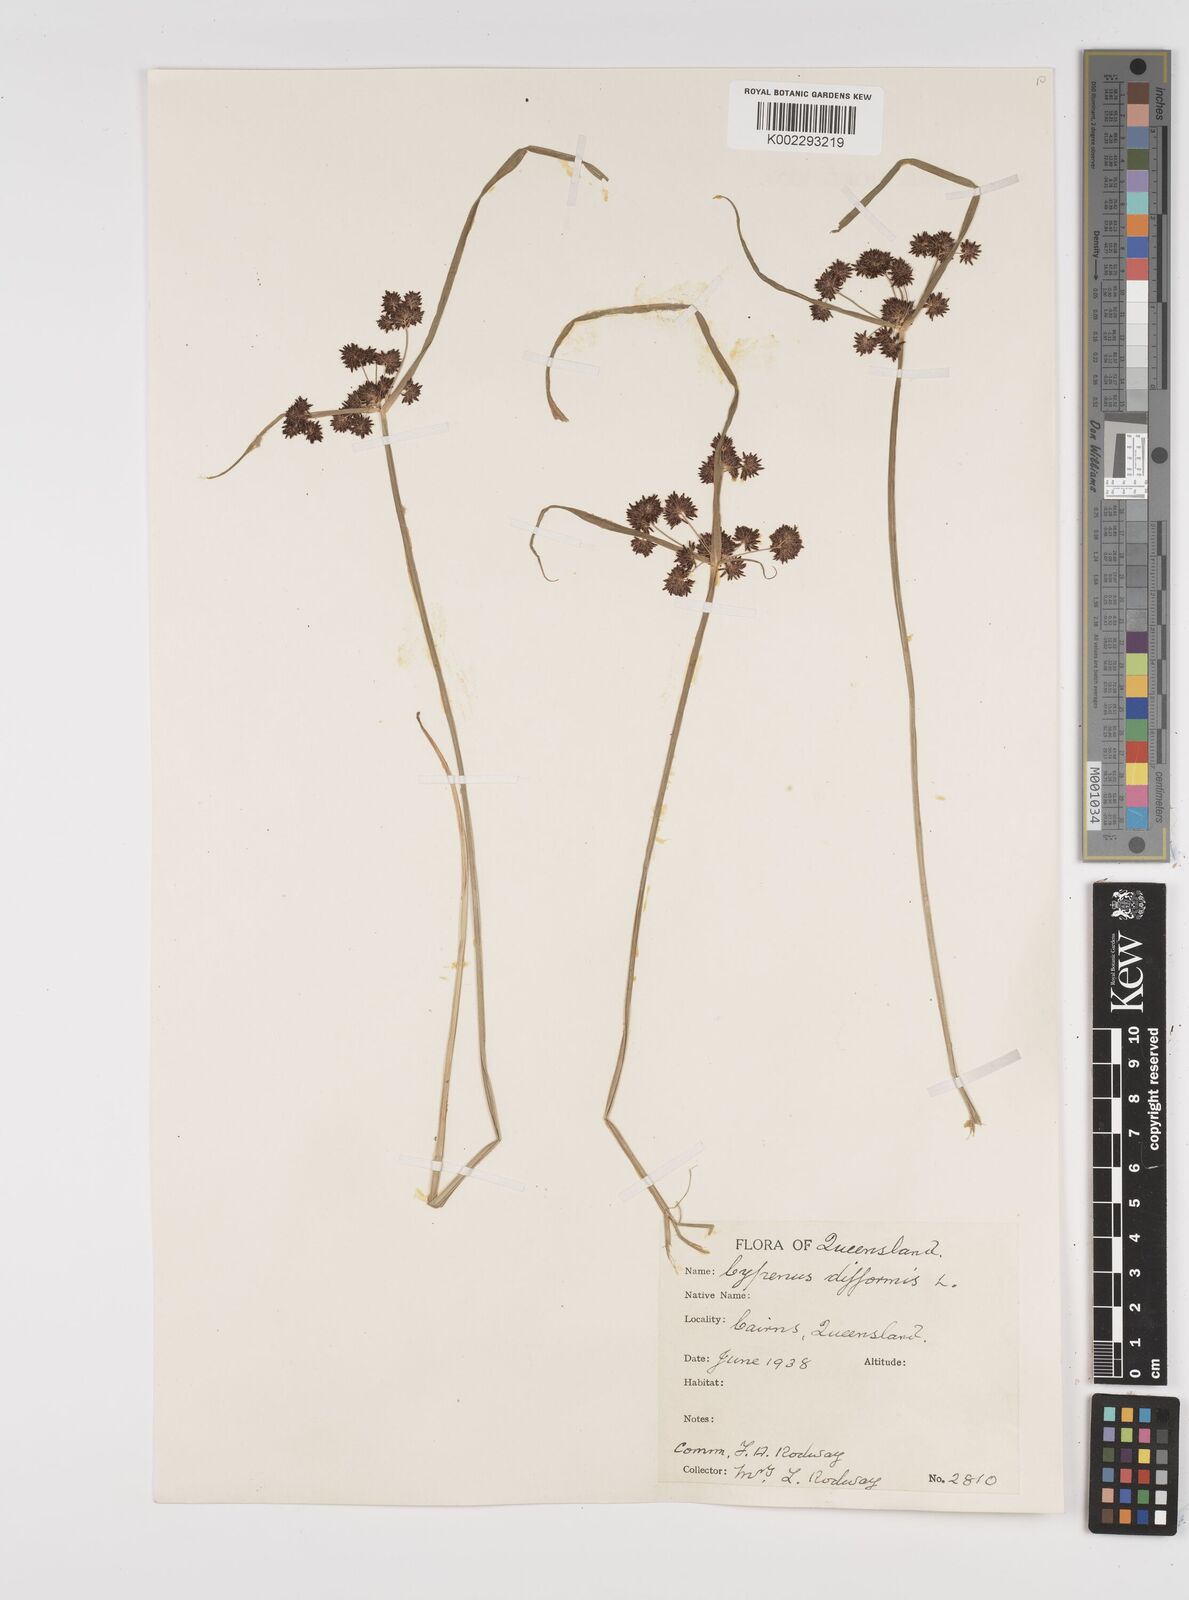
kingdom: Plantae
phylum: Tracheophyta
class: Liliopsida
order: Poales
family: Cyperaceae
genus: Cyperus
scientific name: Cyperus difformis
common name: Variable flatsedge
